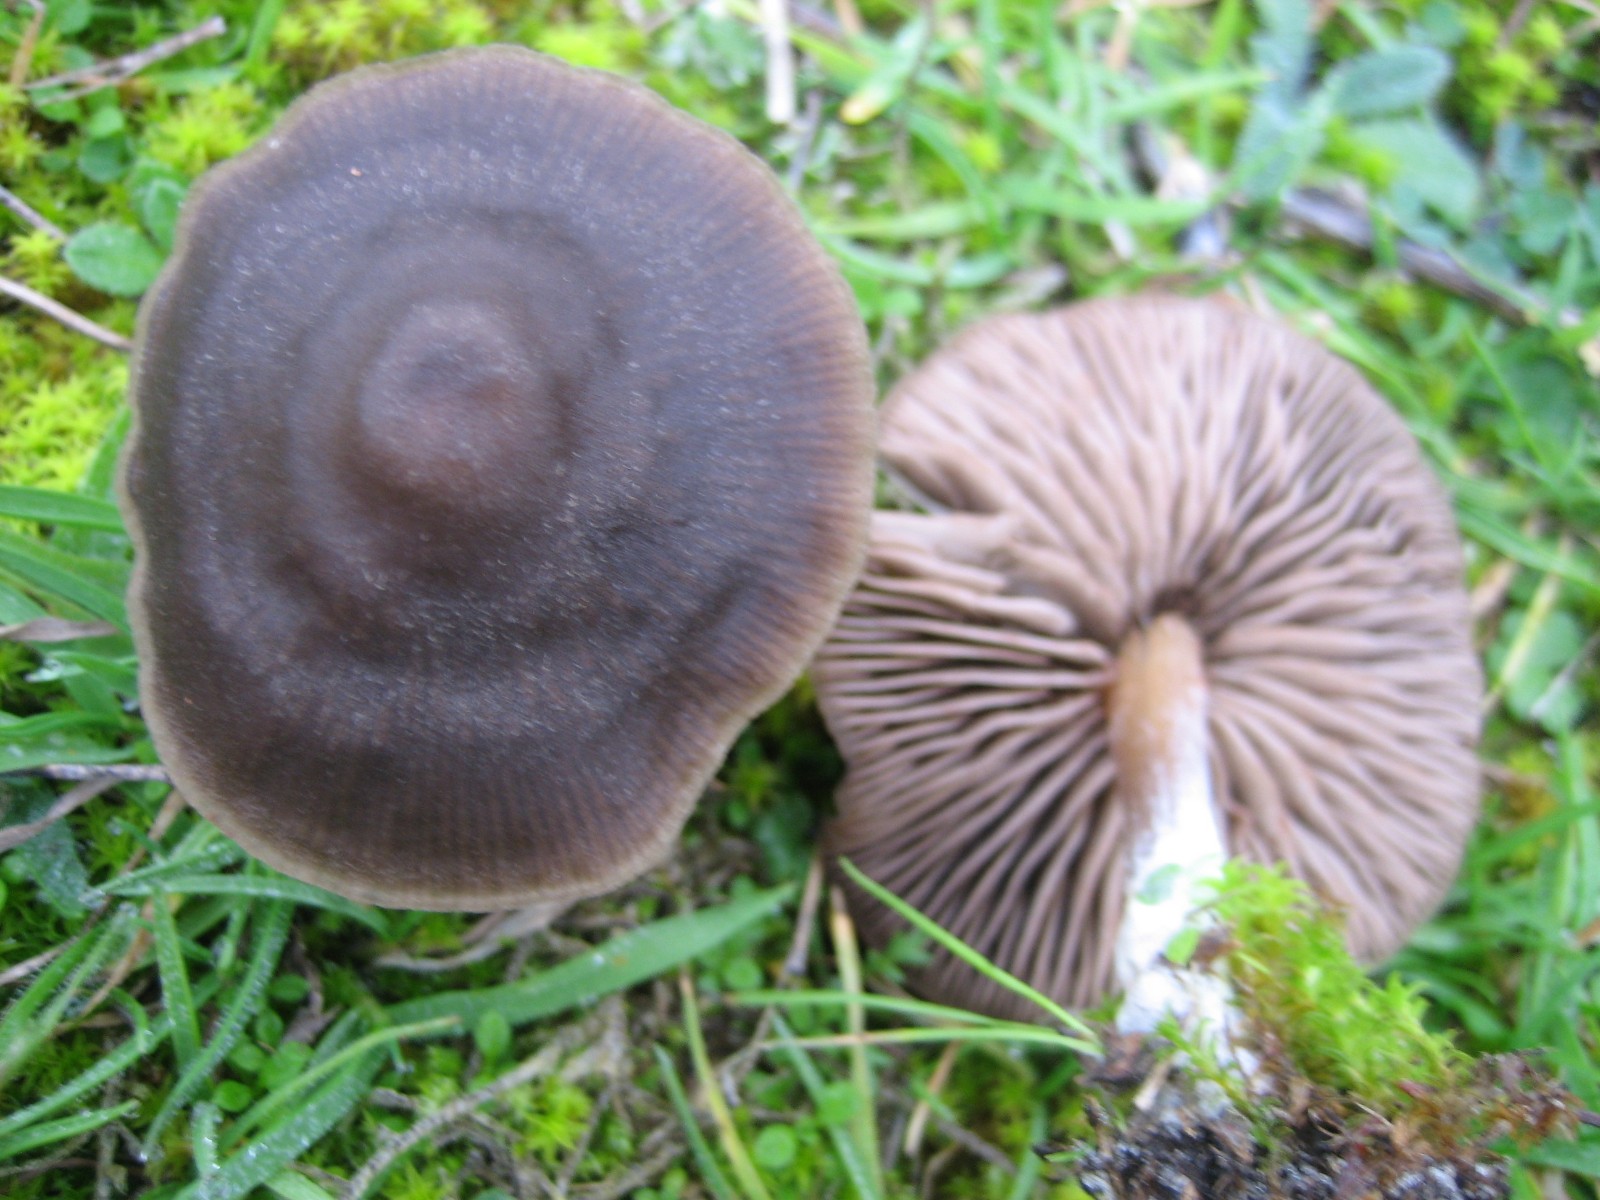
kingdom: Fungi
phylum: Basidiomycota
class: Agaricomycetes
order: Agaricales
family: Entolomataceae
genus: Entoloma
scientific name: Entoloma
